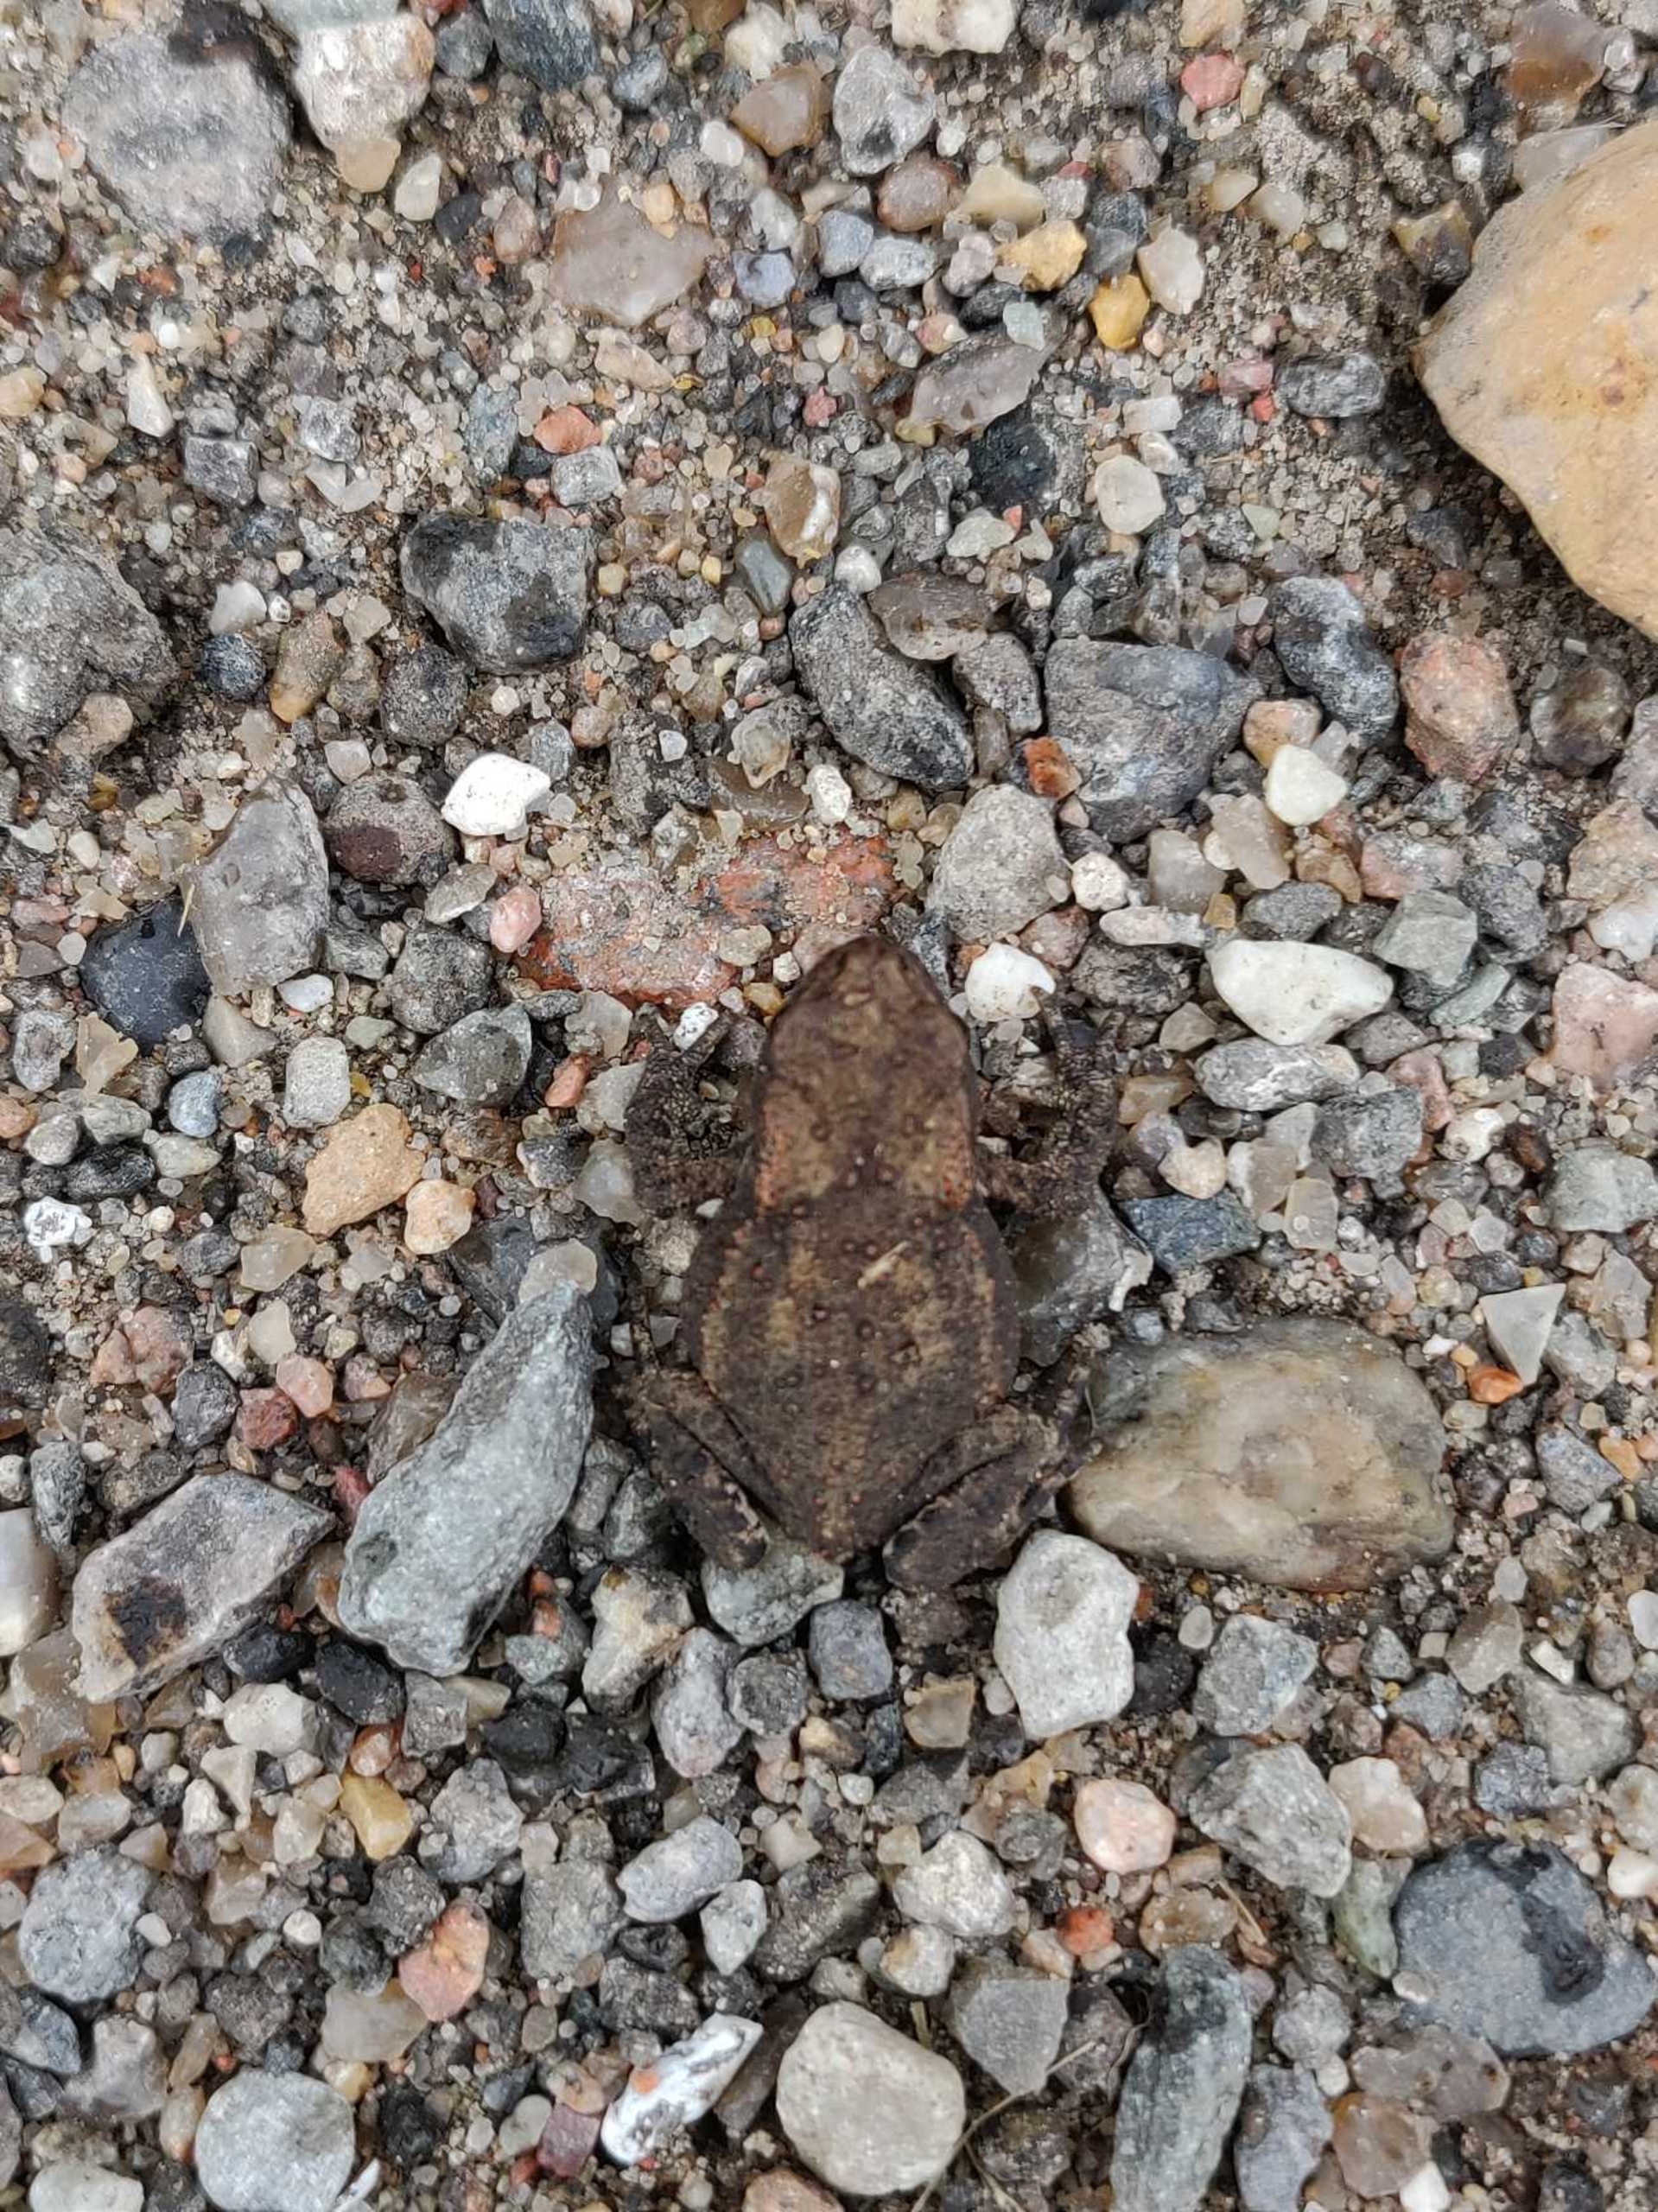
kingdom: Animalia
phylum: Chordata
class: Amphibia
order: Anura
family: Bufonidae
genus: Bufo
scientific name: Bufo bufo
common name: Skrubtudse
